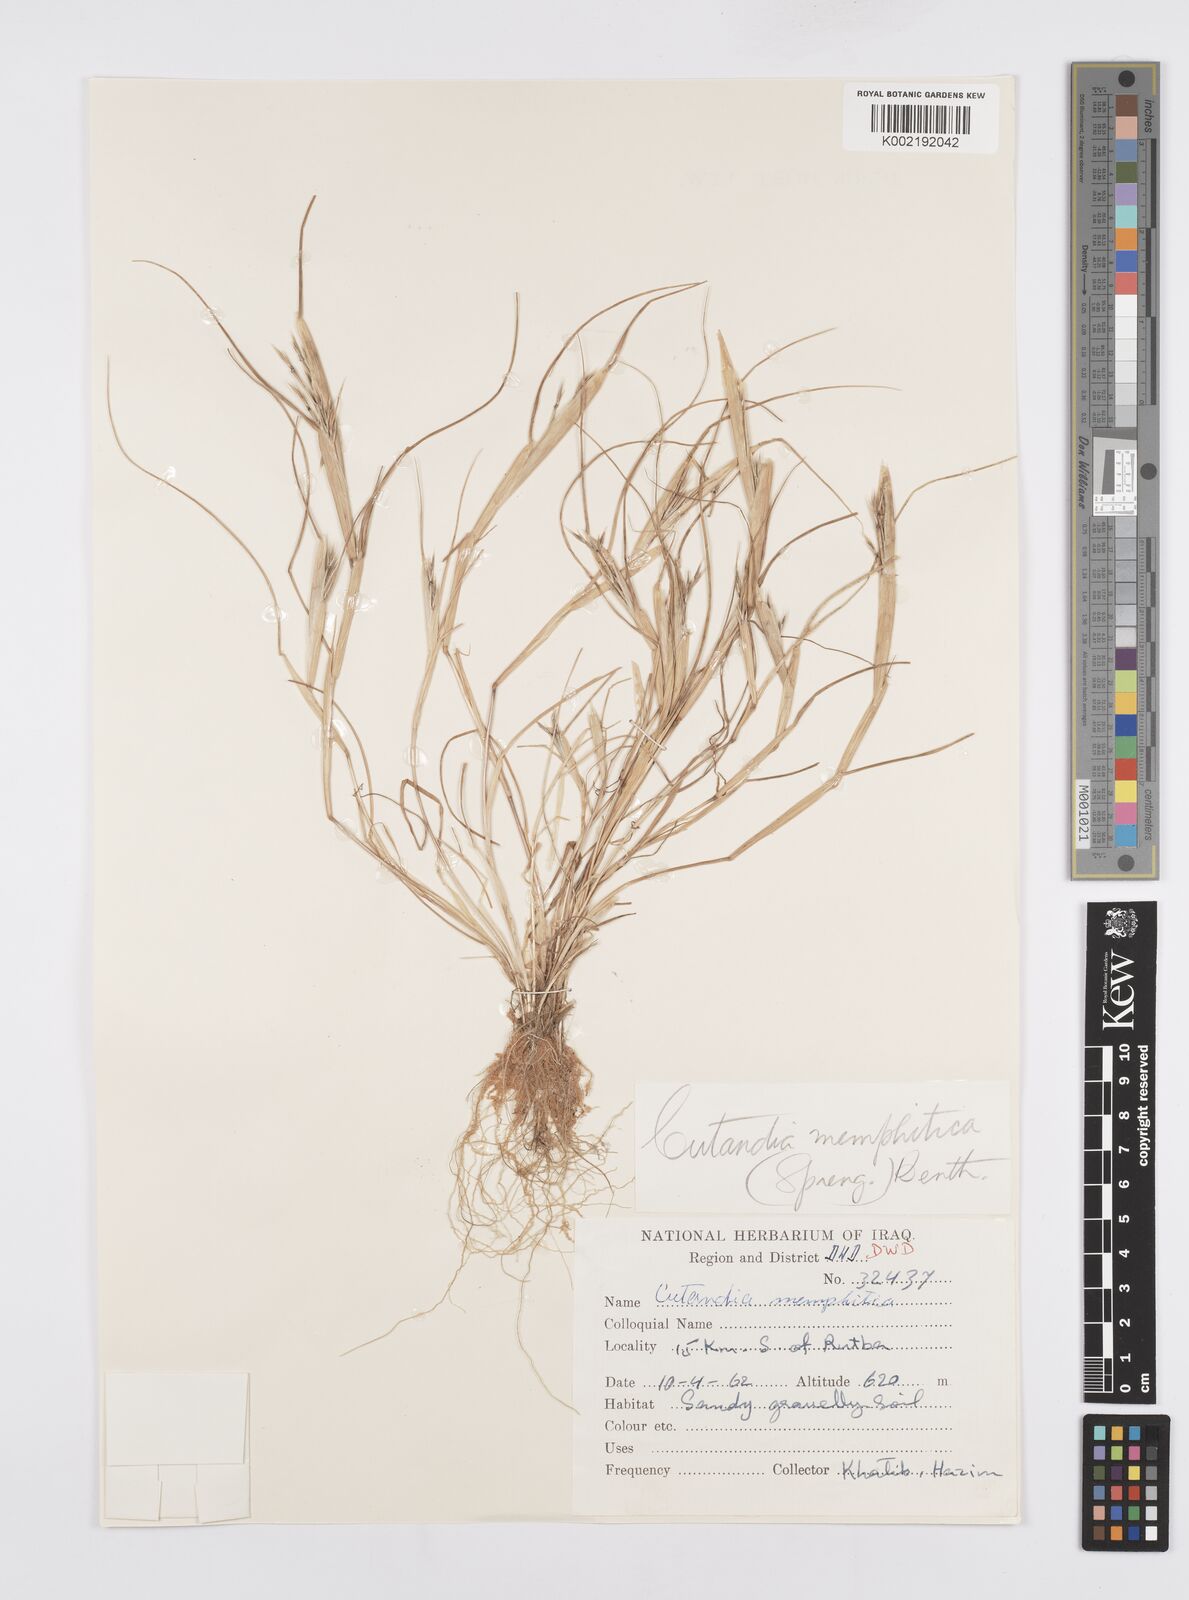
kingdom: Plantae
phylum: Tracheophyta
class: Liliopsida
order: Poales
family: Poaceae
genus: Cutandia
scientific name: Cutandia memphitica
